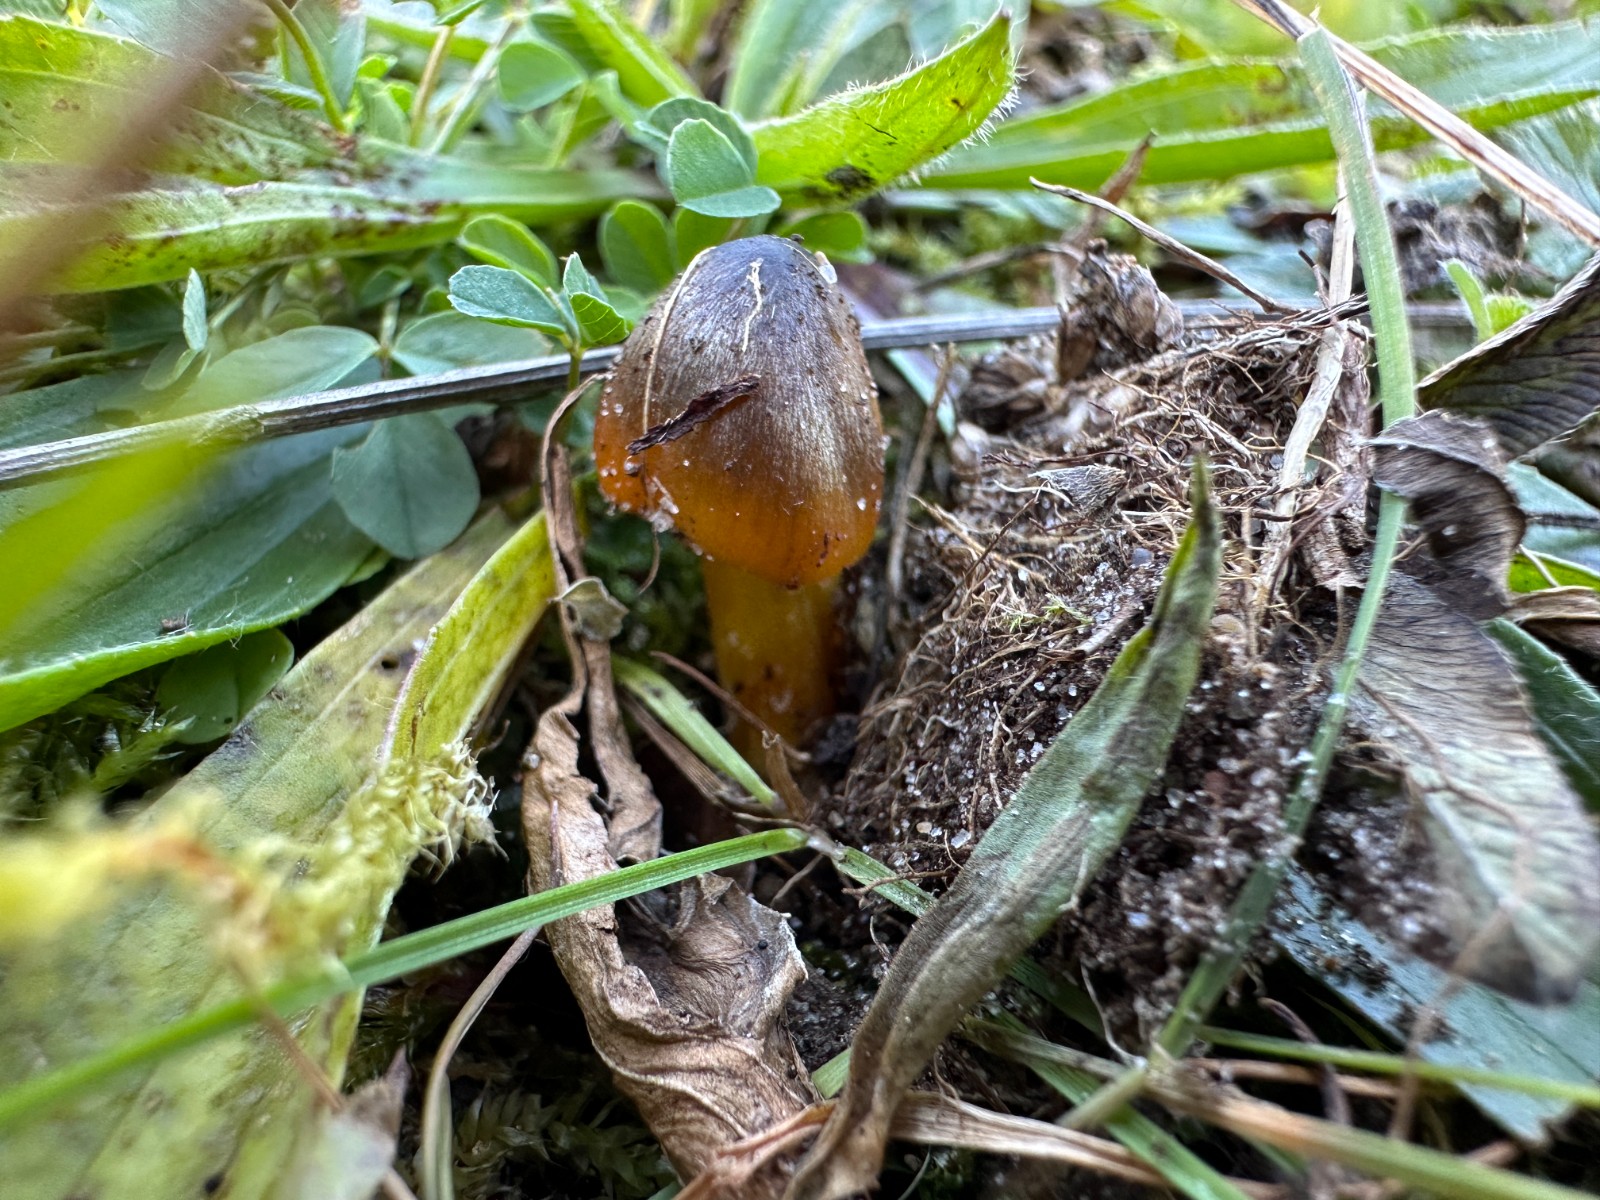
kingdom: Fungi
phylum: Basidiomycota
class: Agaricomycetes
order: Agaricales
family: Hygrophoraceae
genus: Hygrocybe
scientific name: Hygrocybe conica
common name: kegle-vokshat
